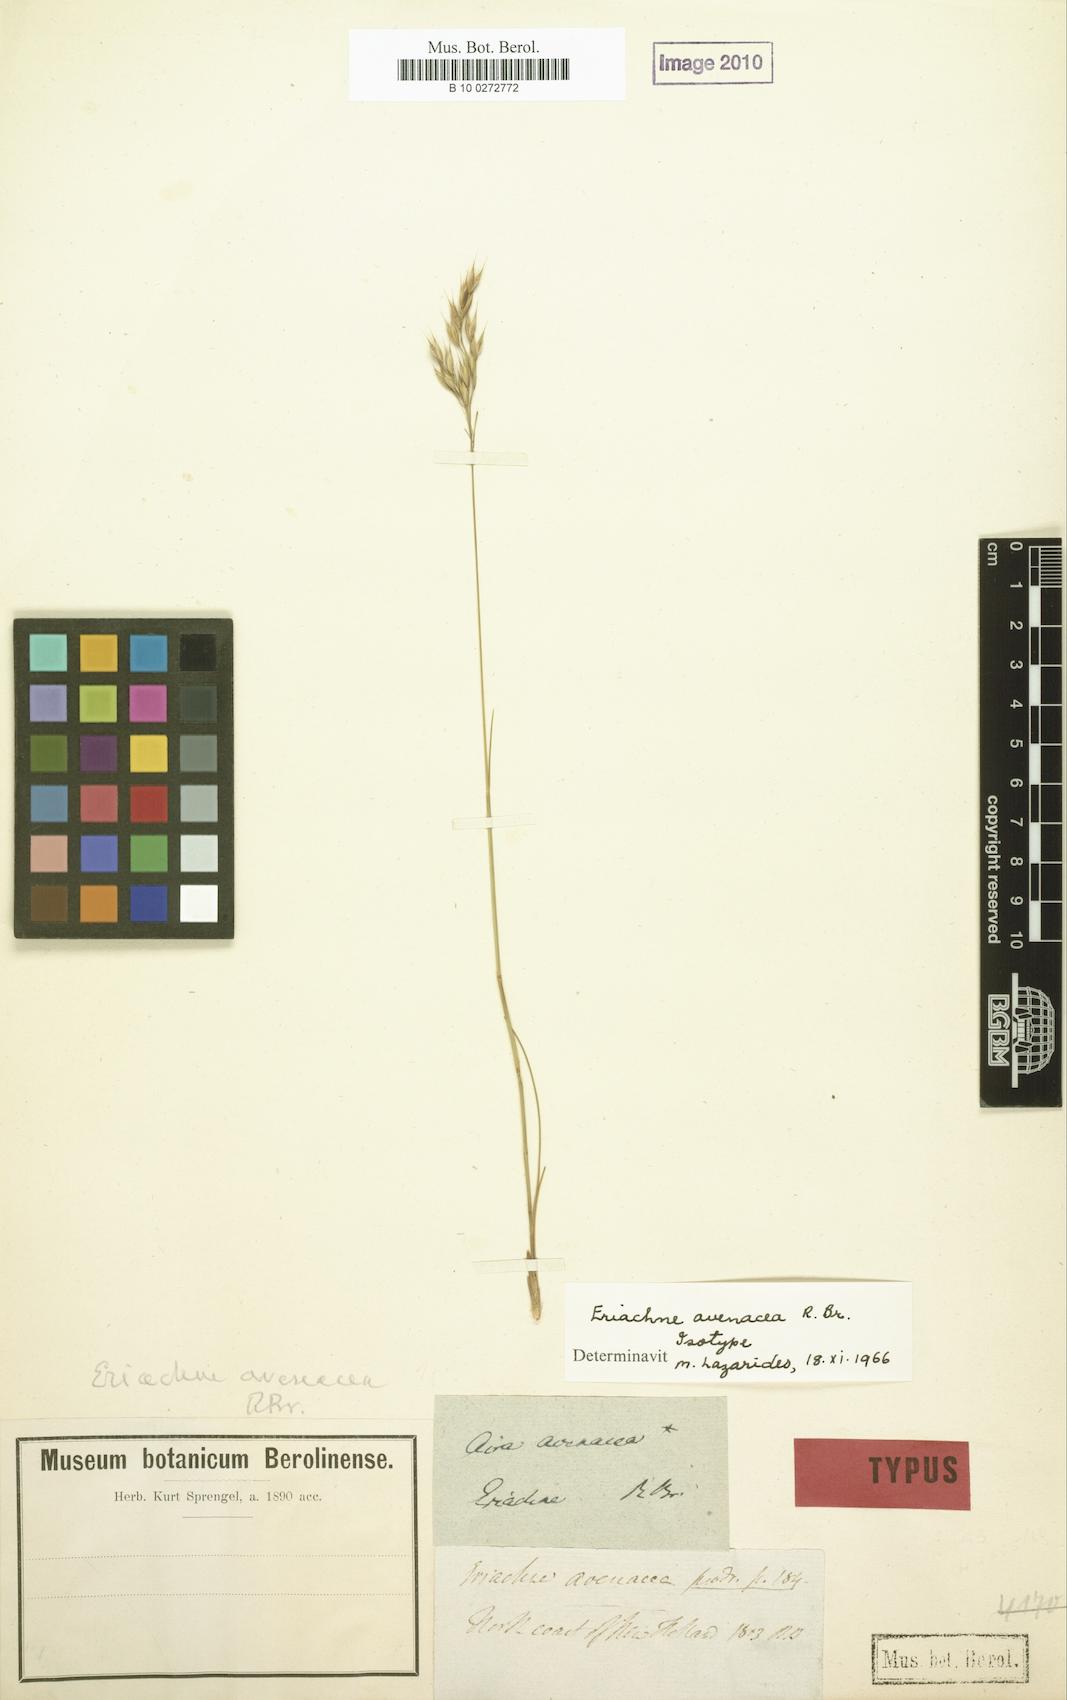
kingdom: Plantae
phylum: Tracheophyta
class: Liliopsida
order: Poales
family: Poaceae
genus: Eriachne
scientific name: Eriachne avenacea
